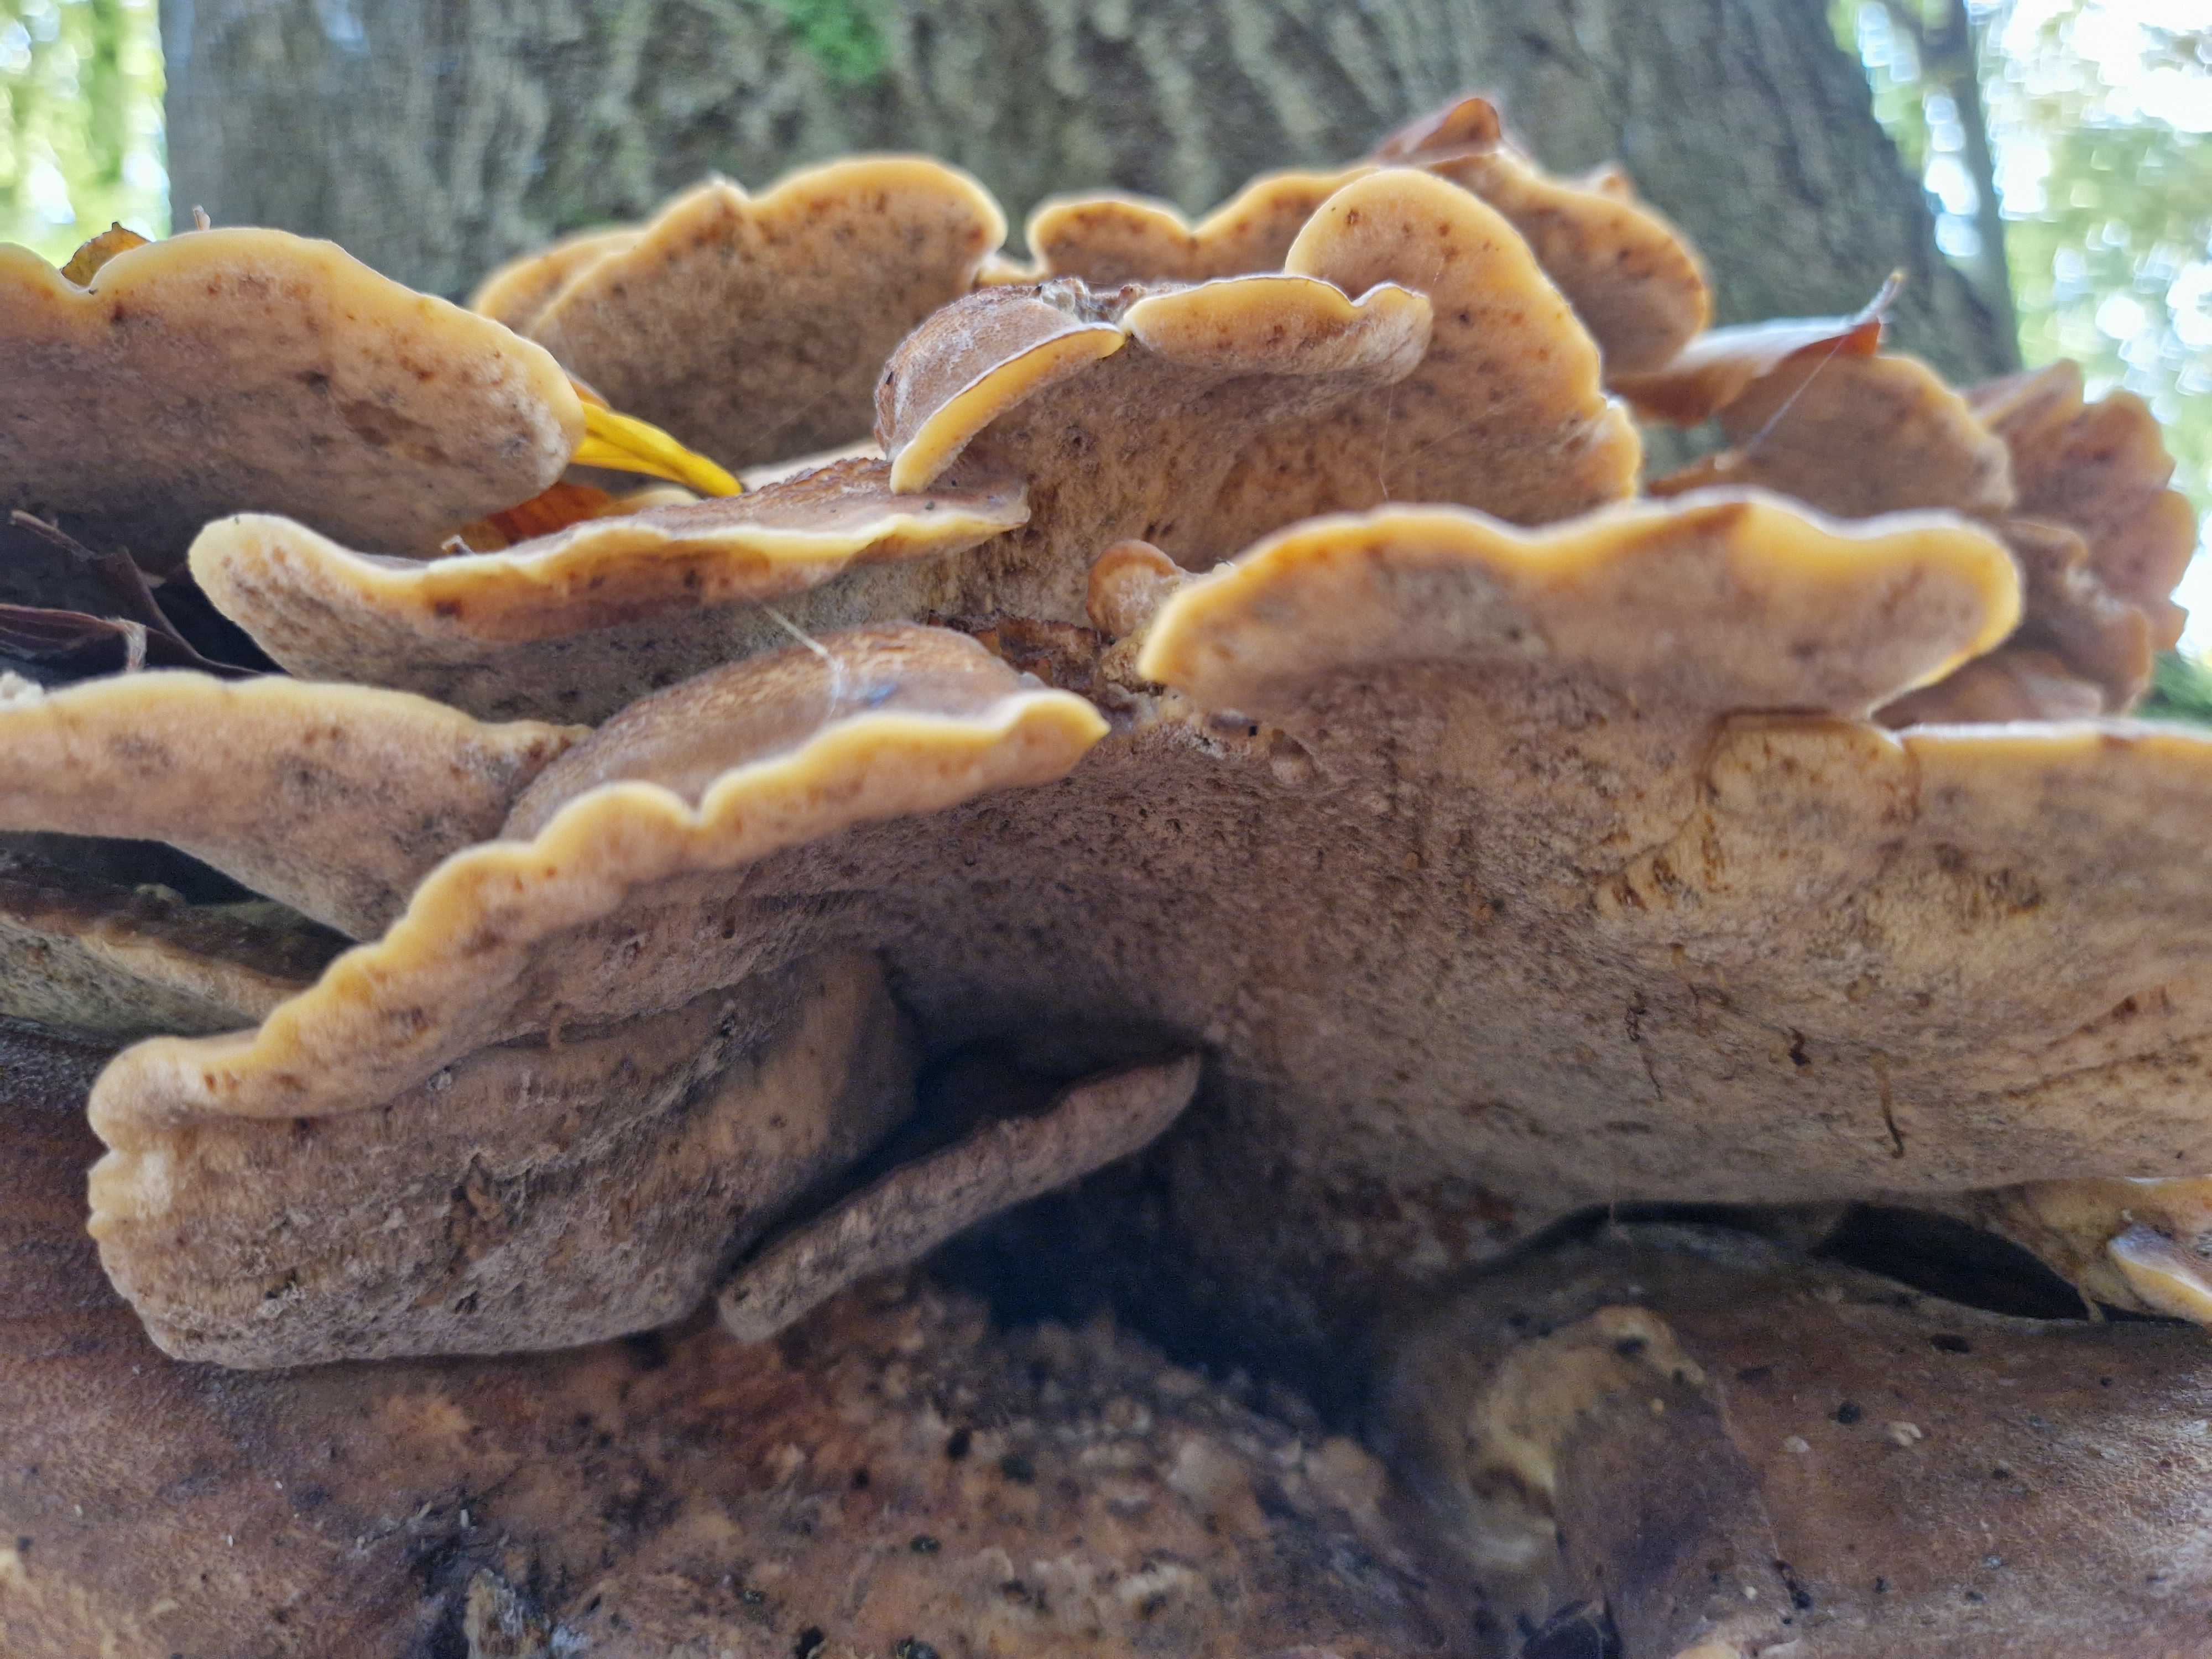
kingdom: Fungi
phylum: Basidiomycota
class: Agaricomycetes
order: Polyporales
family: Meripilaceae
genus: Meripilus
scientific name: Meripilus giganteus
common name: kæmpeporesvamp
